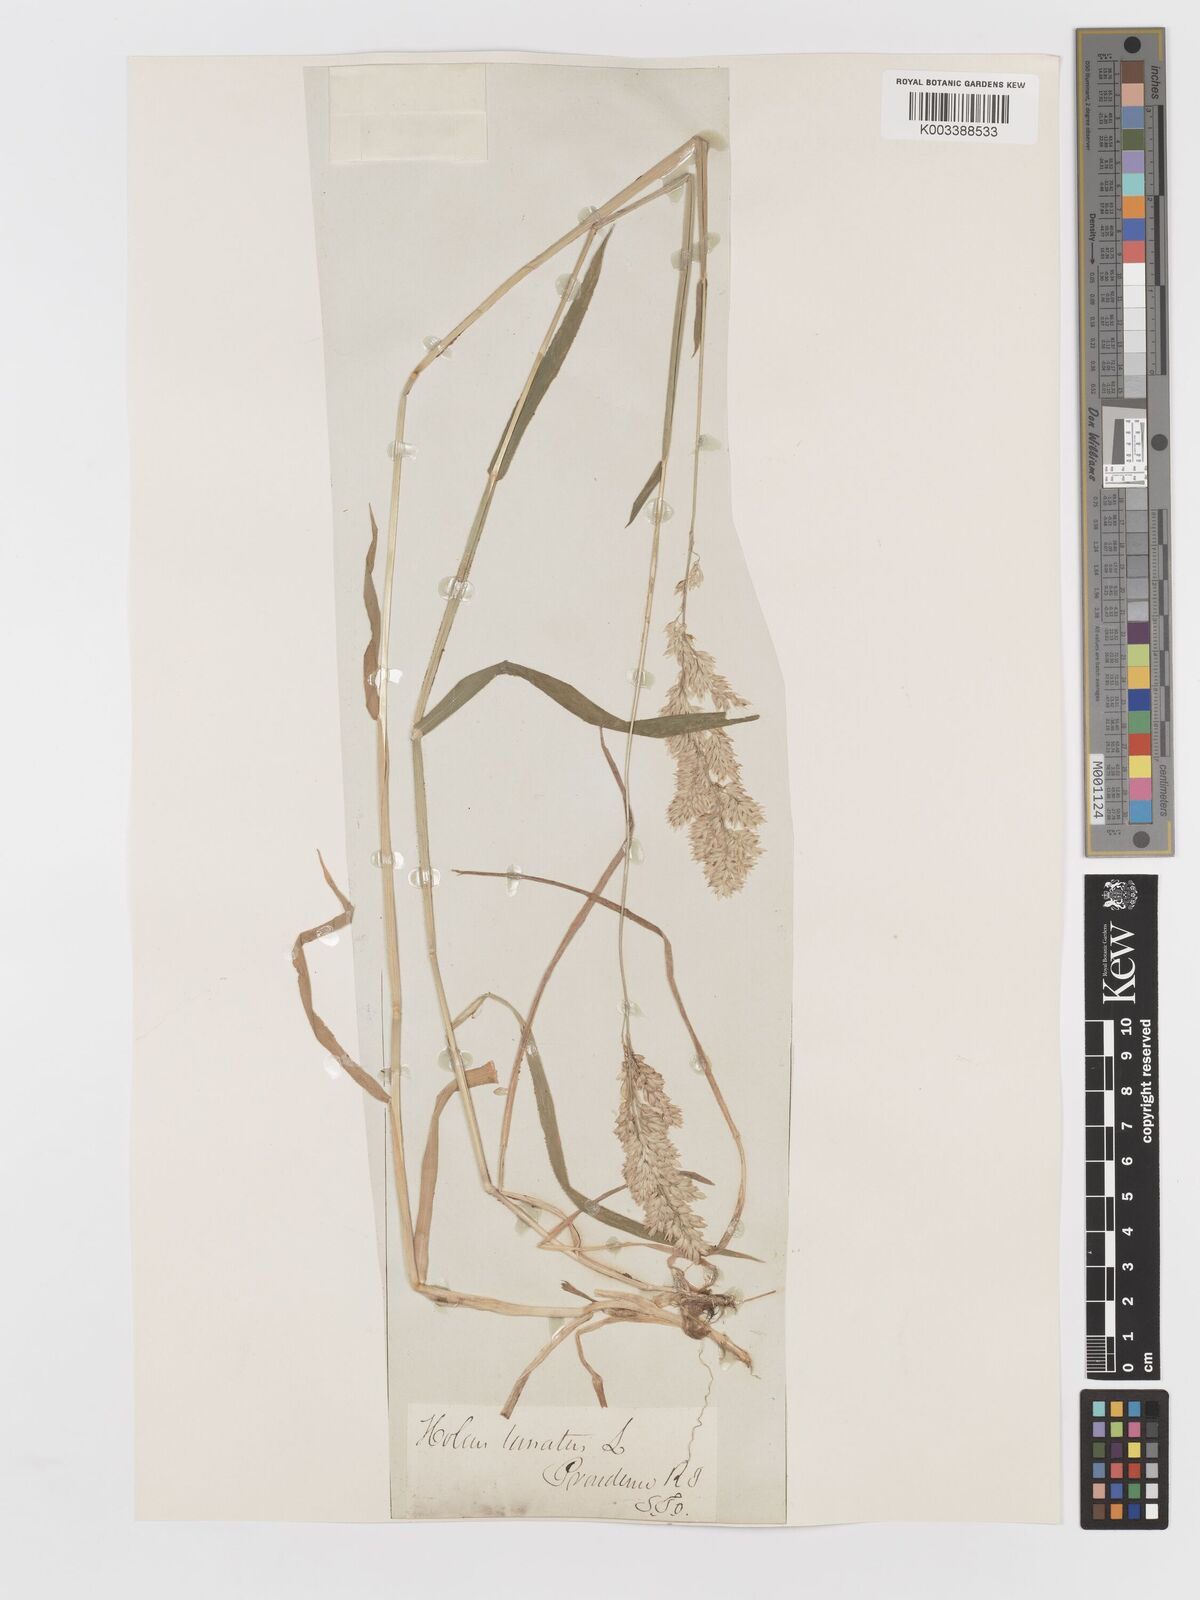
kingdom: Plantae
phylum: Tracheophyta
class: Liliopsida
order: Poales
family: Poaceae
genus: Holcus
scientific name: Holcus lanatus
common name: Yorkshire-fog
